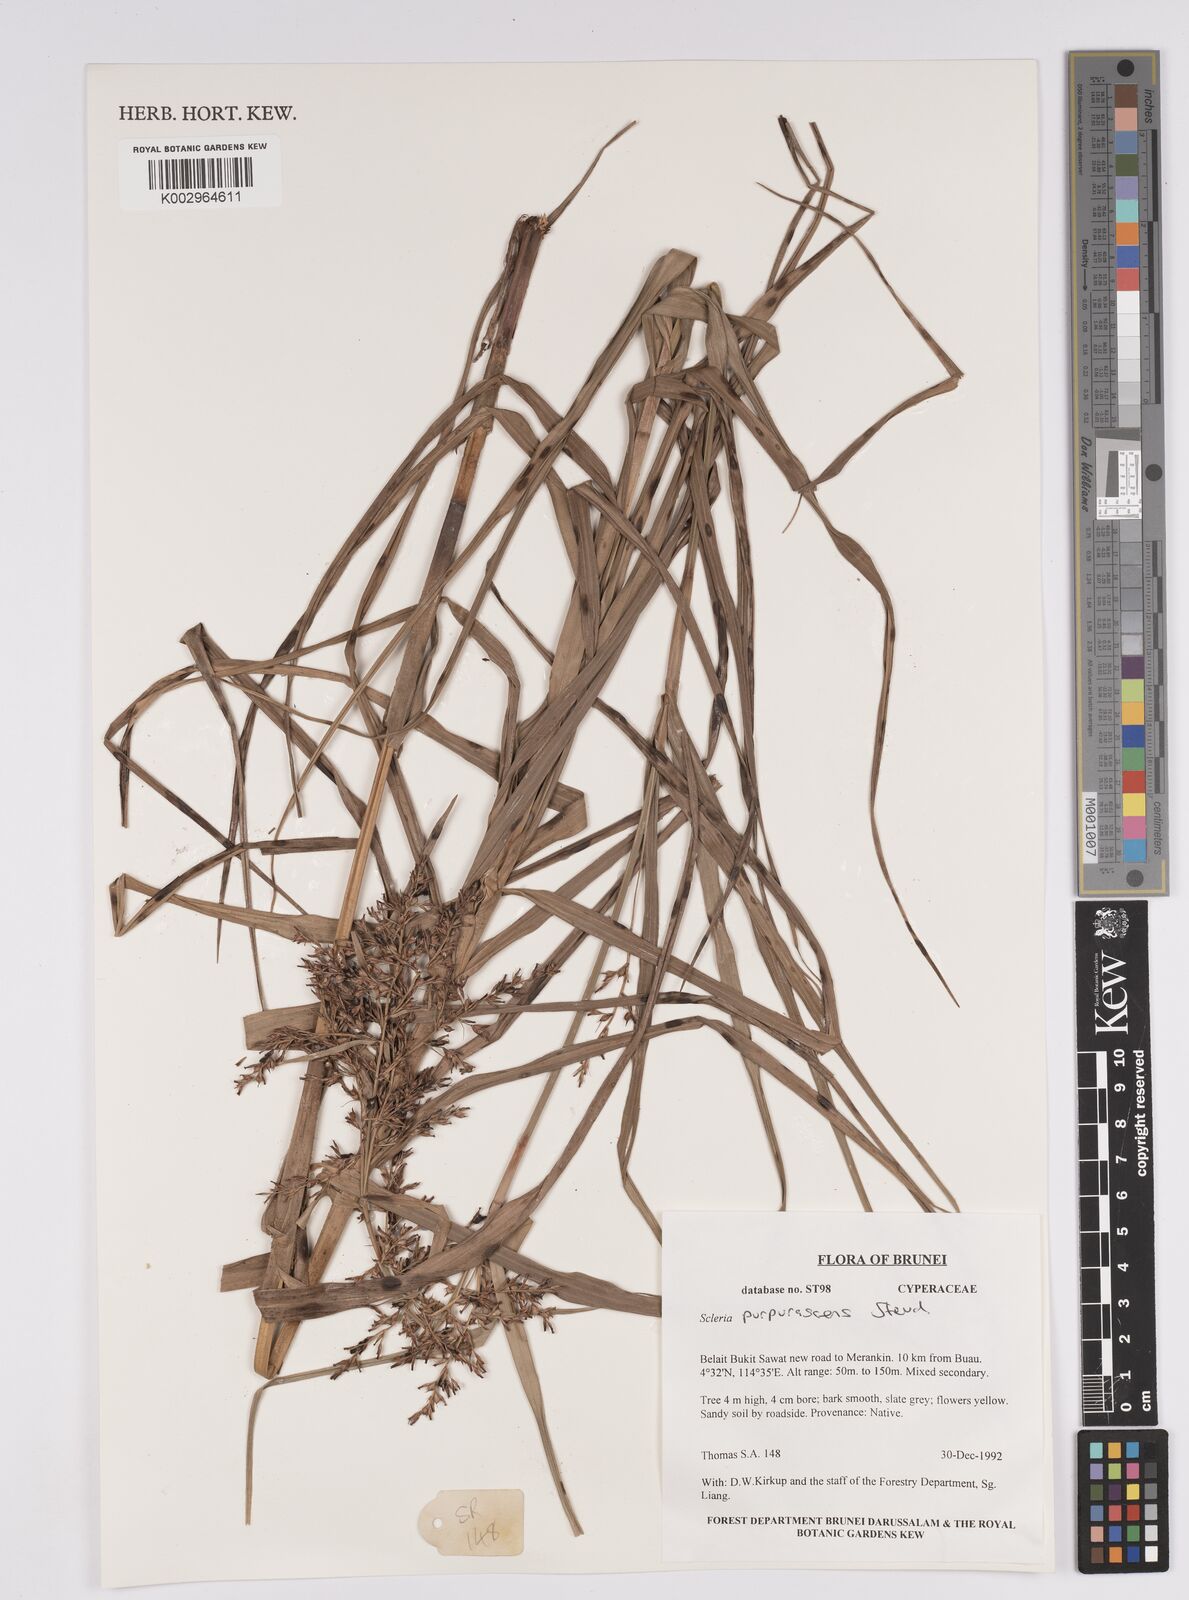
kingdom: Plantae
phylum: Tracheophyta
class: Liliopsida
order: Poales
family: Cyperaceae
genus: Scleria
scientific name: Scleria purpurascens
